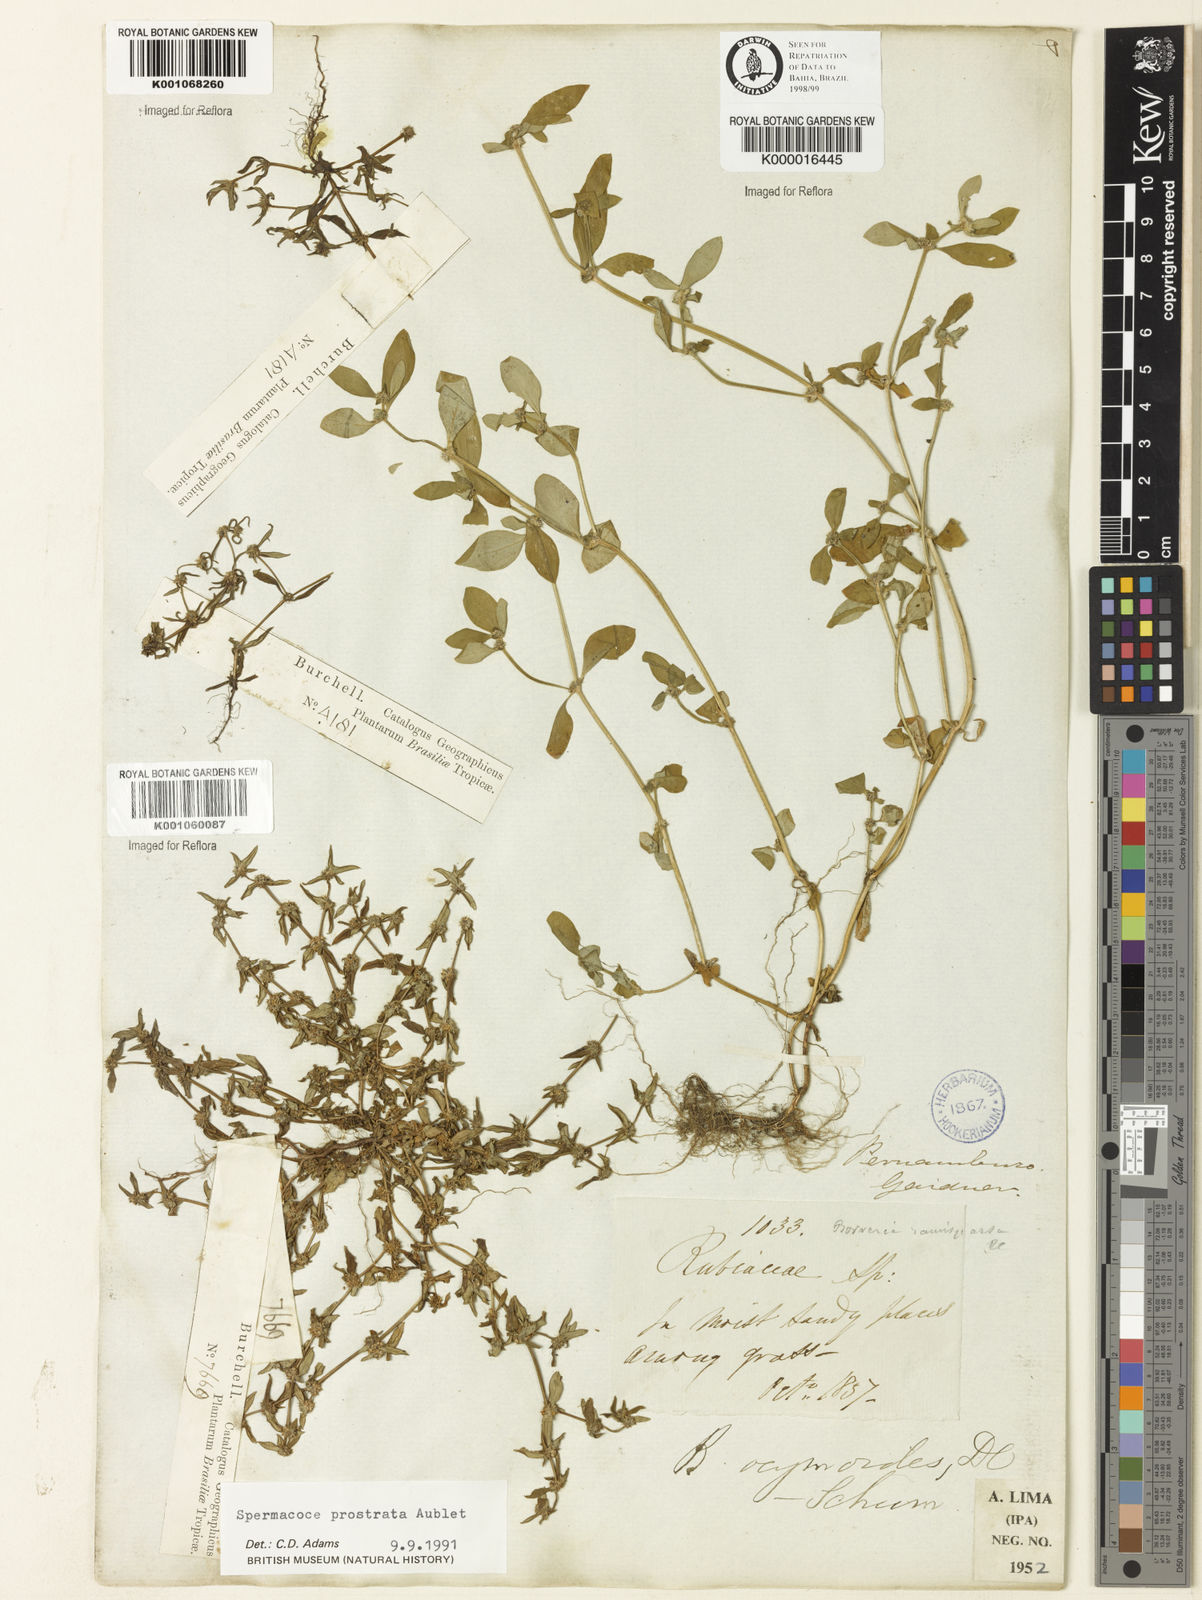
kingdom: Plantae
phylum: Tracheophyta
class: Magnoliopsida
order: Gentianales
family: Rubiaceae
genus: Spermacoce
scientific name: Spermacoce prostrata
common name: Prostrate false buttonweed
